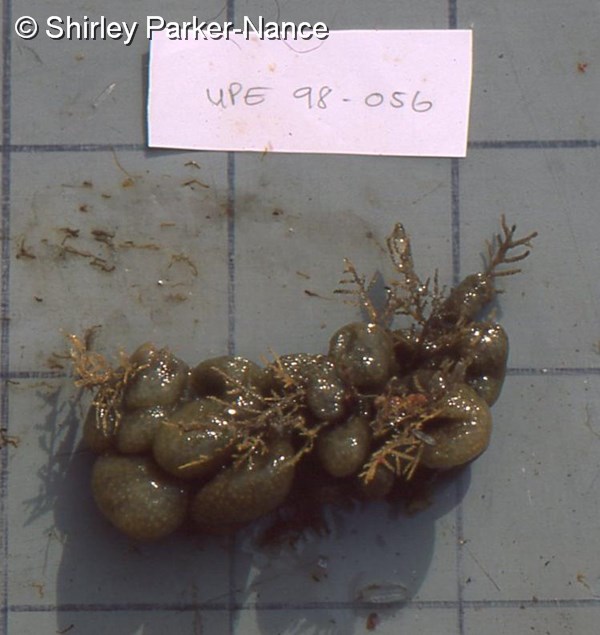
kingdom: Animalia
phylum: Chordata
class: Ascidiacea
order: Aplousobranchia
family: Polycitoridae
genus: Eudistoma
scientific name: Eudistoma
